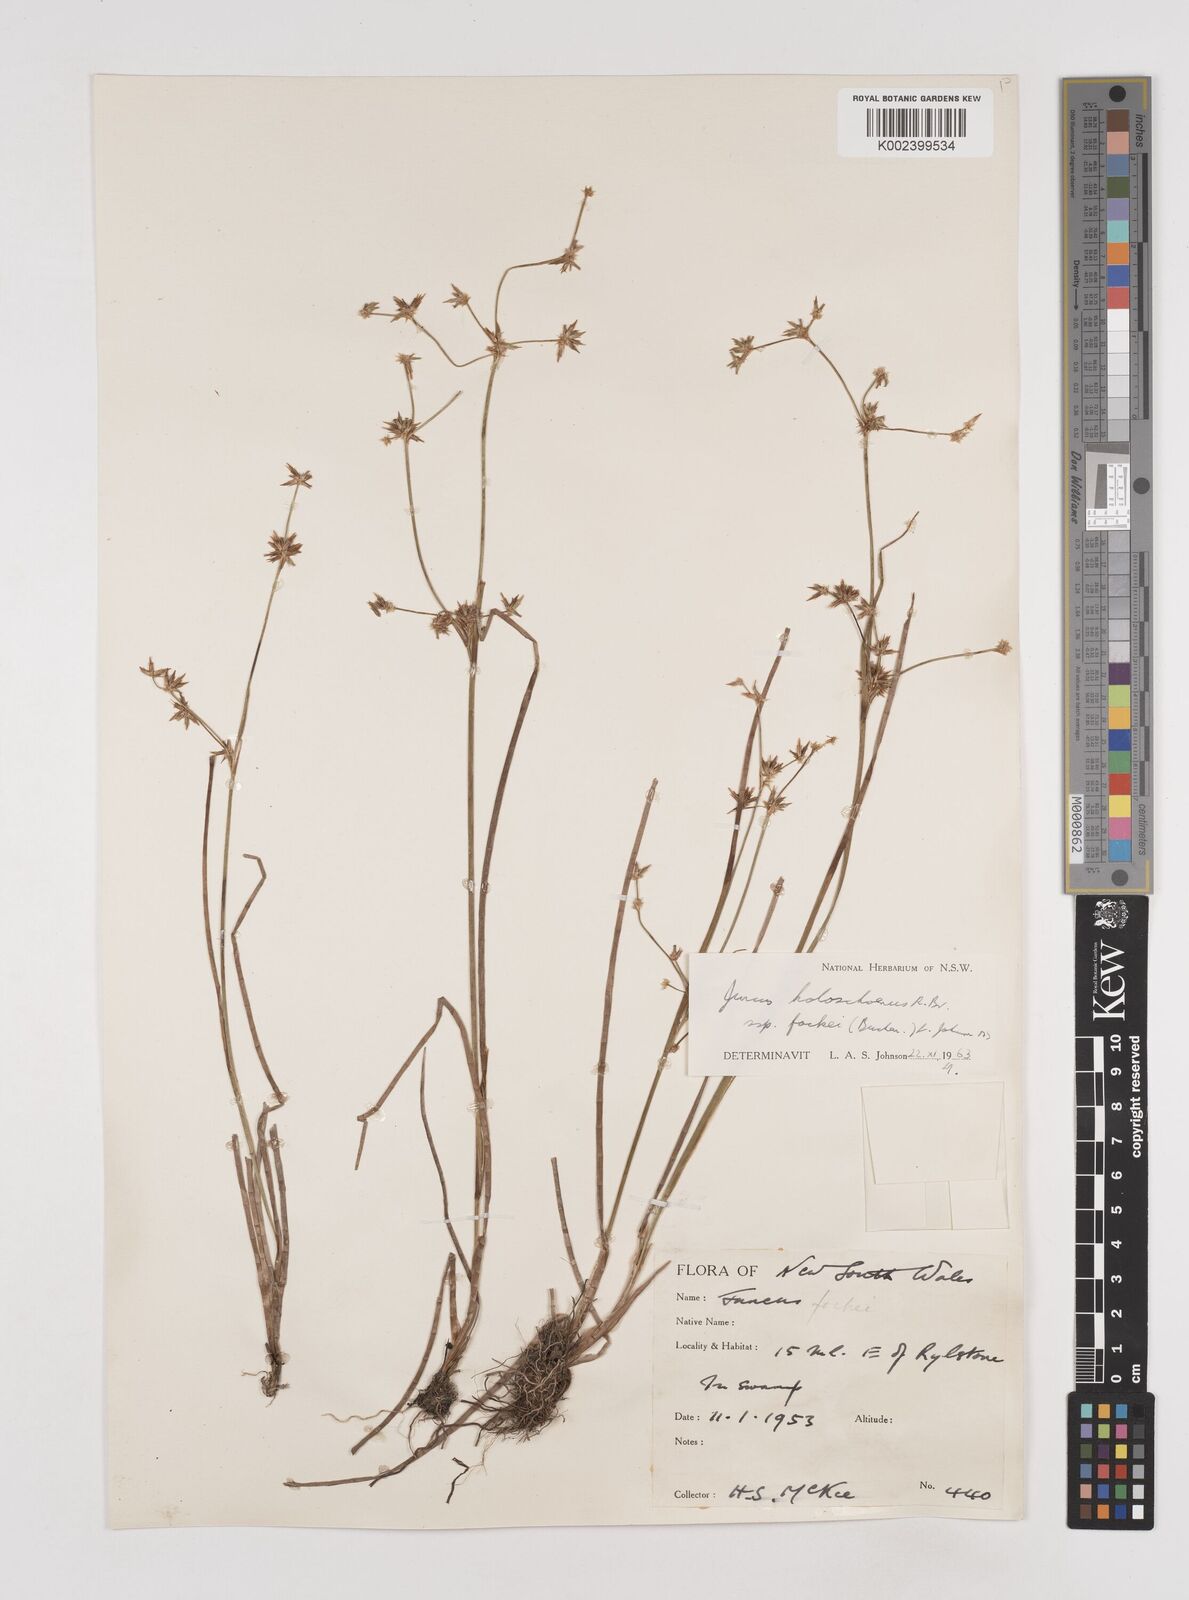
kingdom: Plantae
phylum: Tracheophyta
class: Liliopsida
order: Poales
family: Juncaceae
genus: Juncus
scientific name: Juncus holoschoenus
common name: Joint-leaf rush
